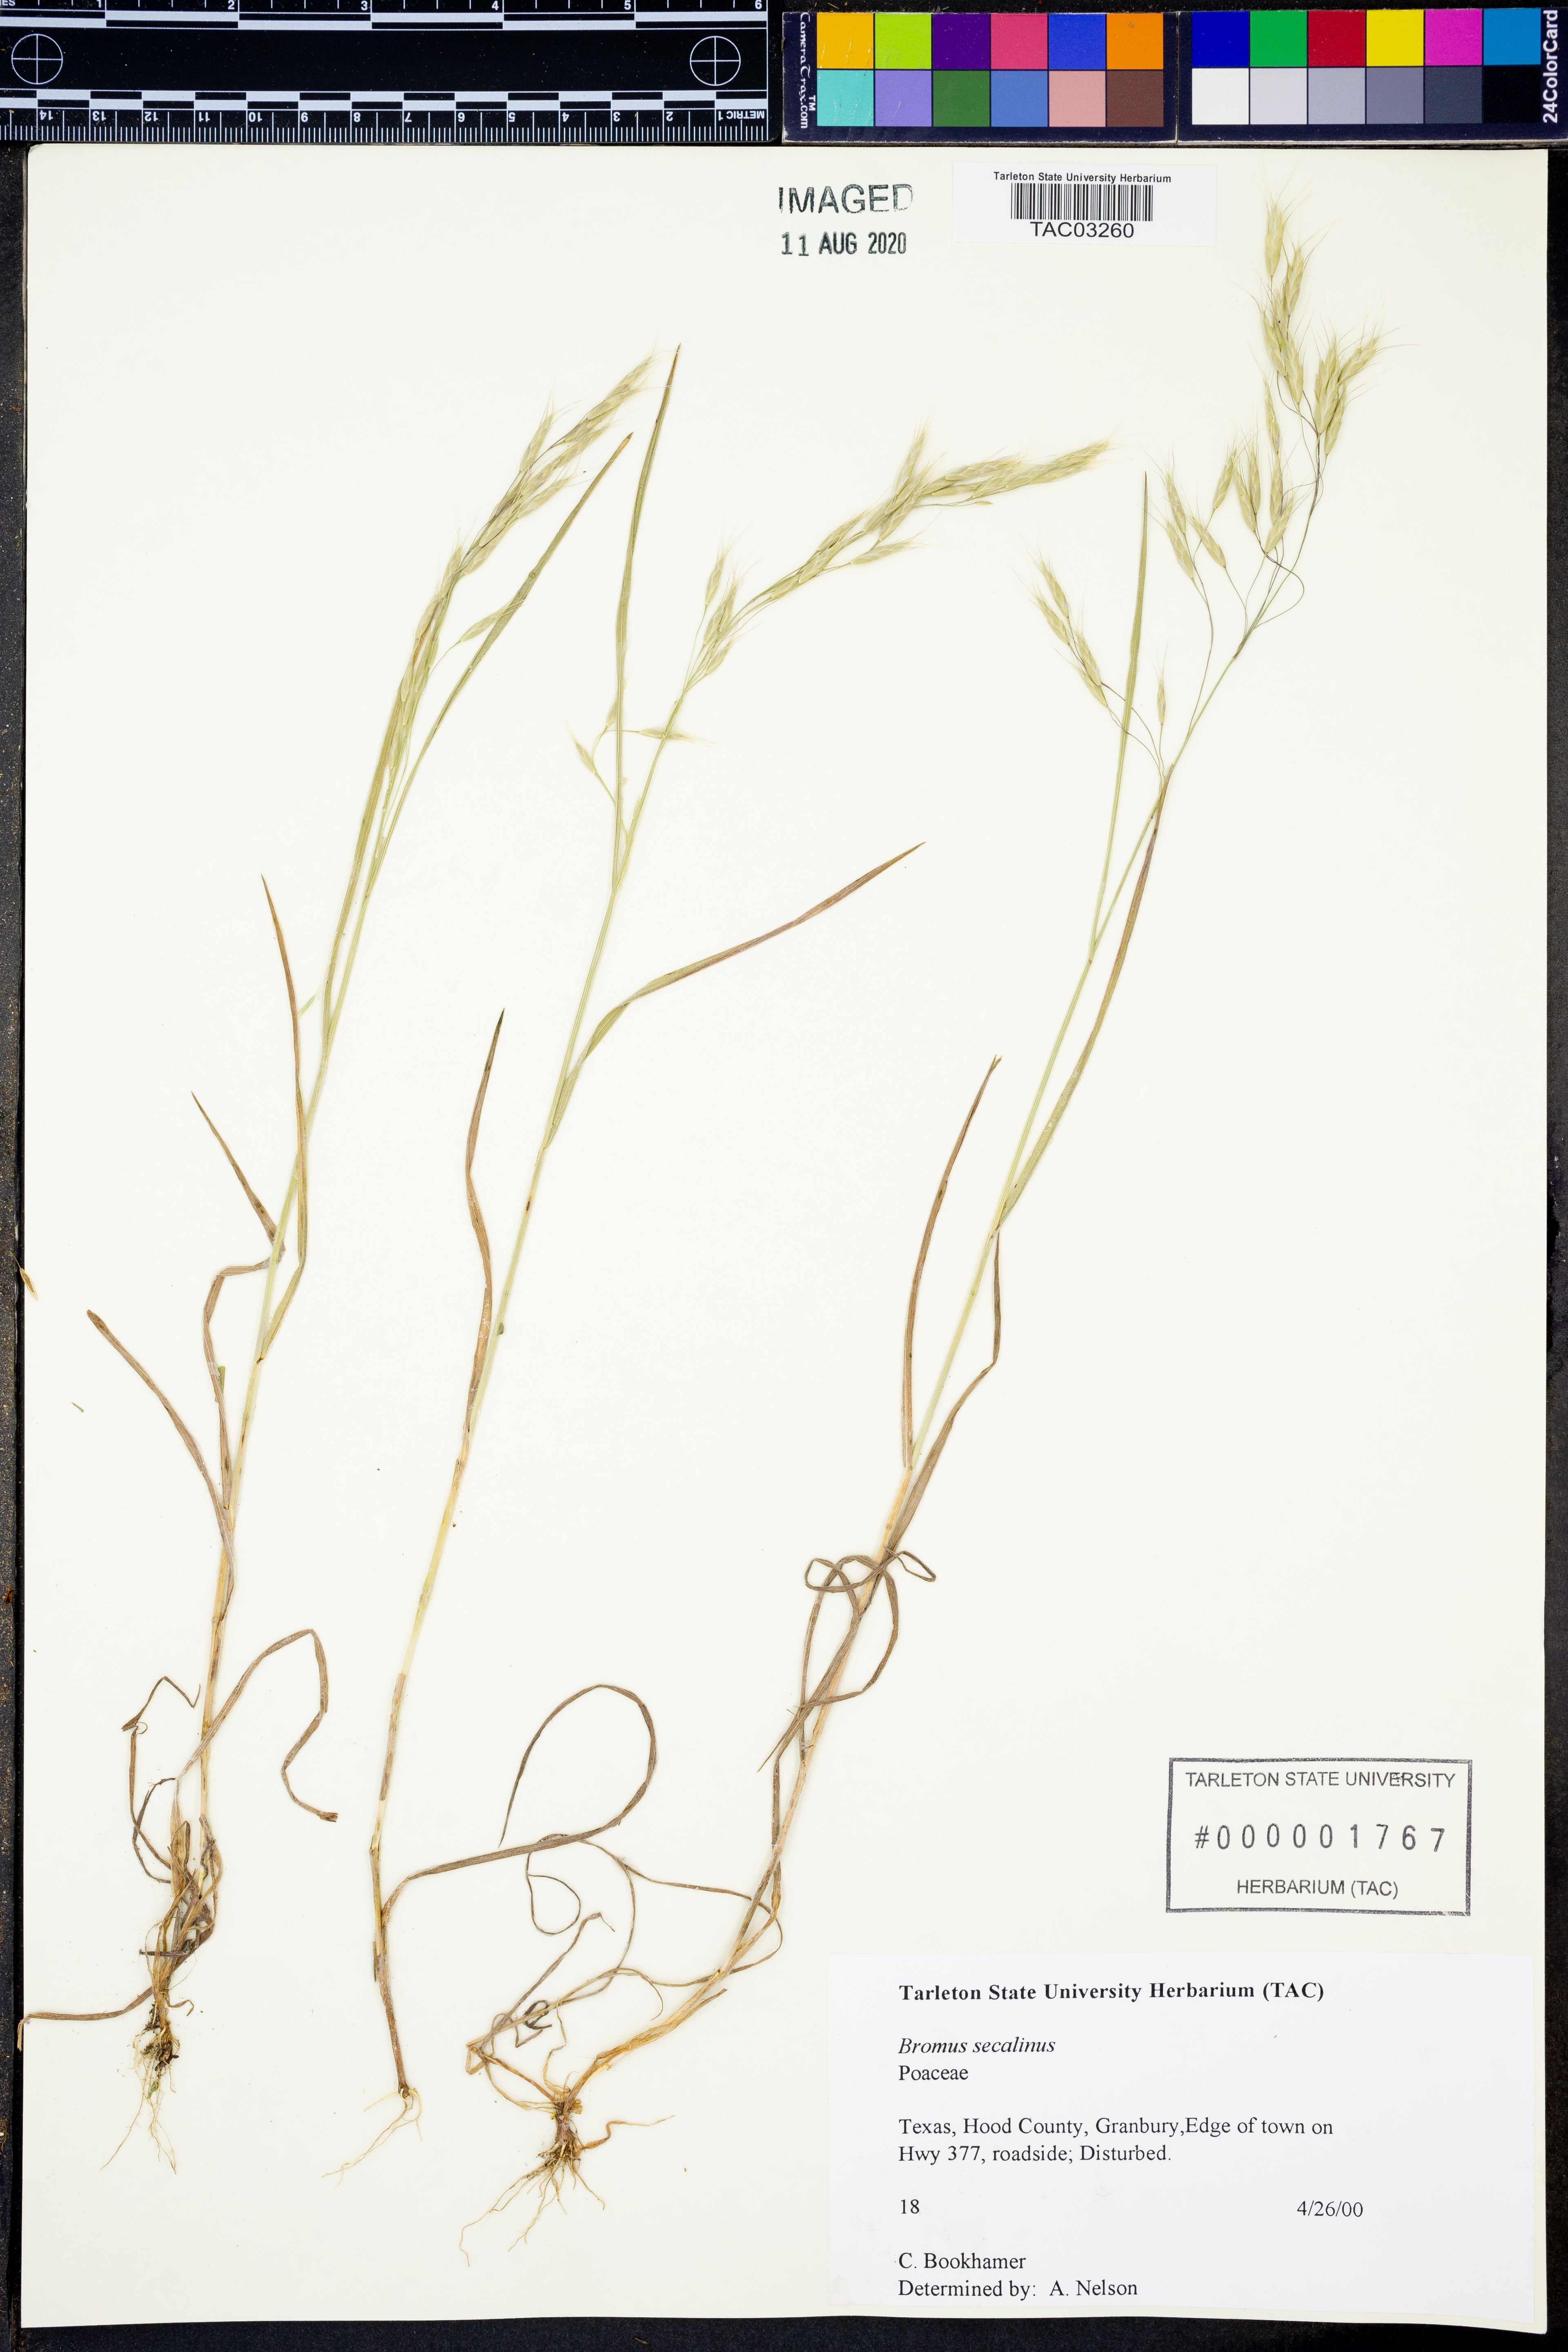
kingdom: Plantae
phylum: Tracheophyta
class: Liliopsida
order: Poales
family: Poaceae
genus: Bromus
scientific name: Bromus secalinus
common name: Rye brome
